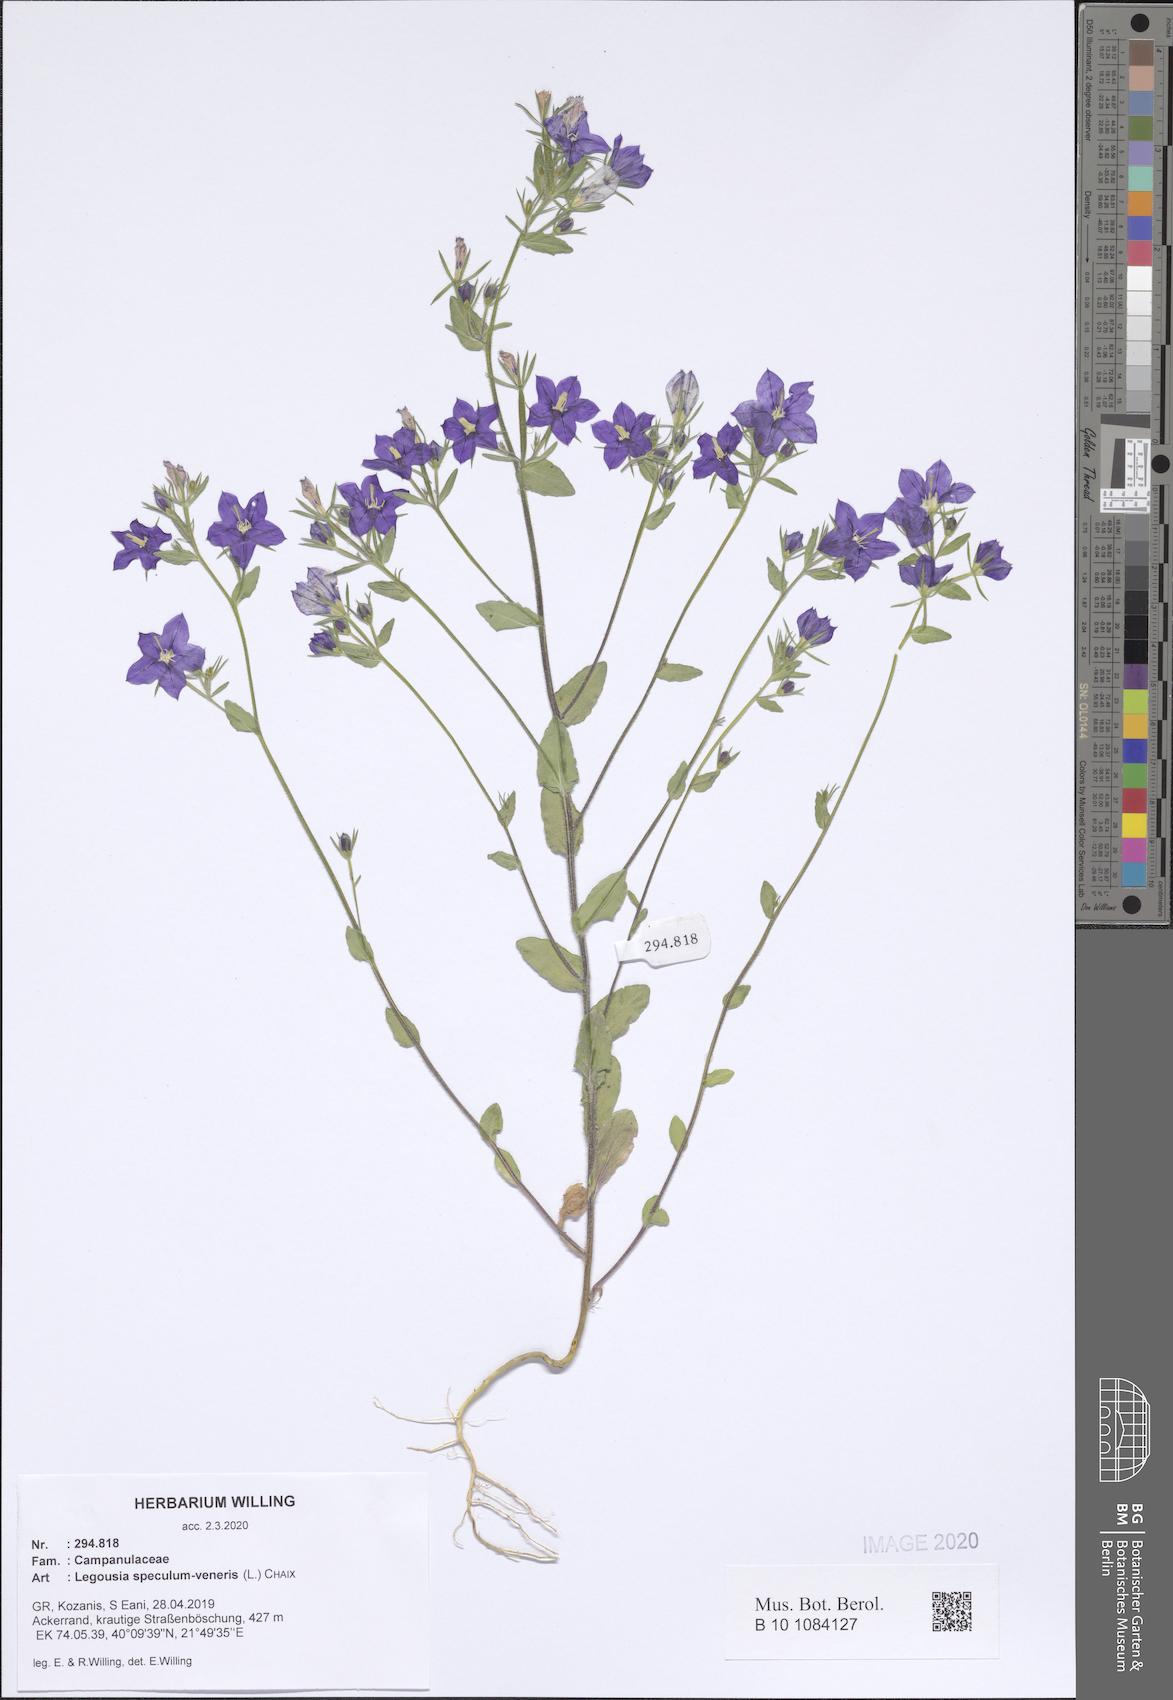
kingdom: Plantae
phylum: Tracheophyta
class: Magnoliopsida
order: Asterales
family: Campanulaceae
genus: Legousia
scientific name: Legousia speculum-veneris
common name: Large venus's-looking-glass
